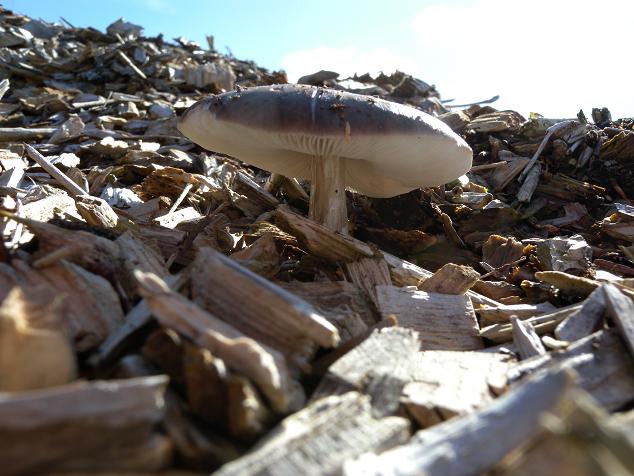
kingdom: Fungi
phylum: Basidiomycota
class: Agaricomycetes
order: Agaricales
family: Pluteaceae
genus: Pluteus
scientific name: Pluteus primus
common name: tidlig skærmhat
